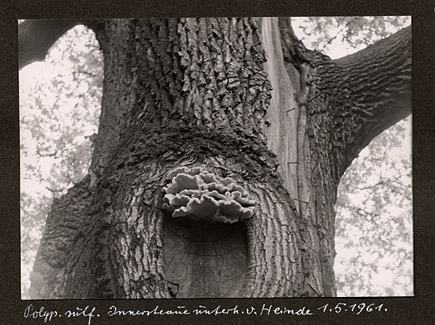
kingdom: Fungi
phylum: Basidiomycota
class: Agaricomycetes
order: Polyporales
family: Laetiporaceae
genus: Laetiporus
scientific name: Laetiporus sulphureus
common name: Chicken of the woods
